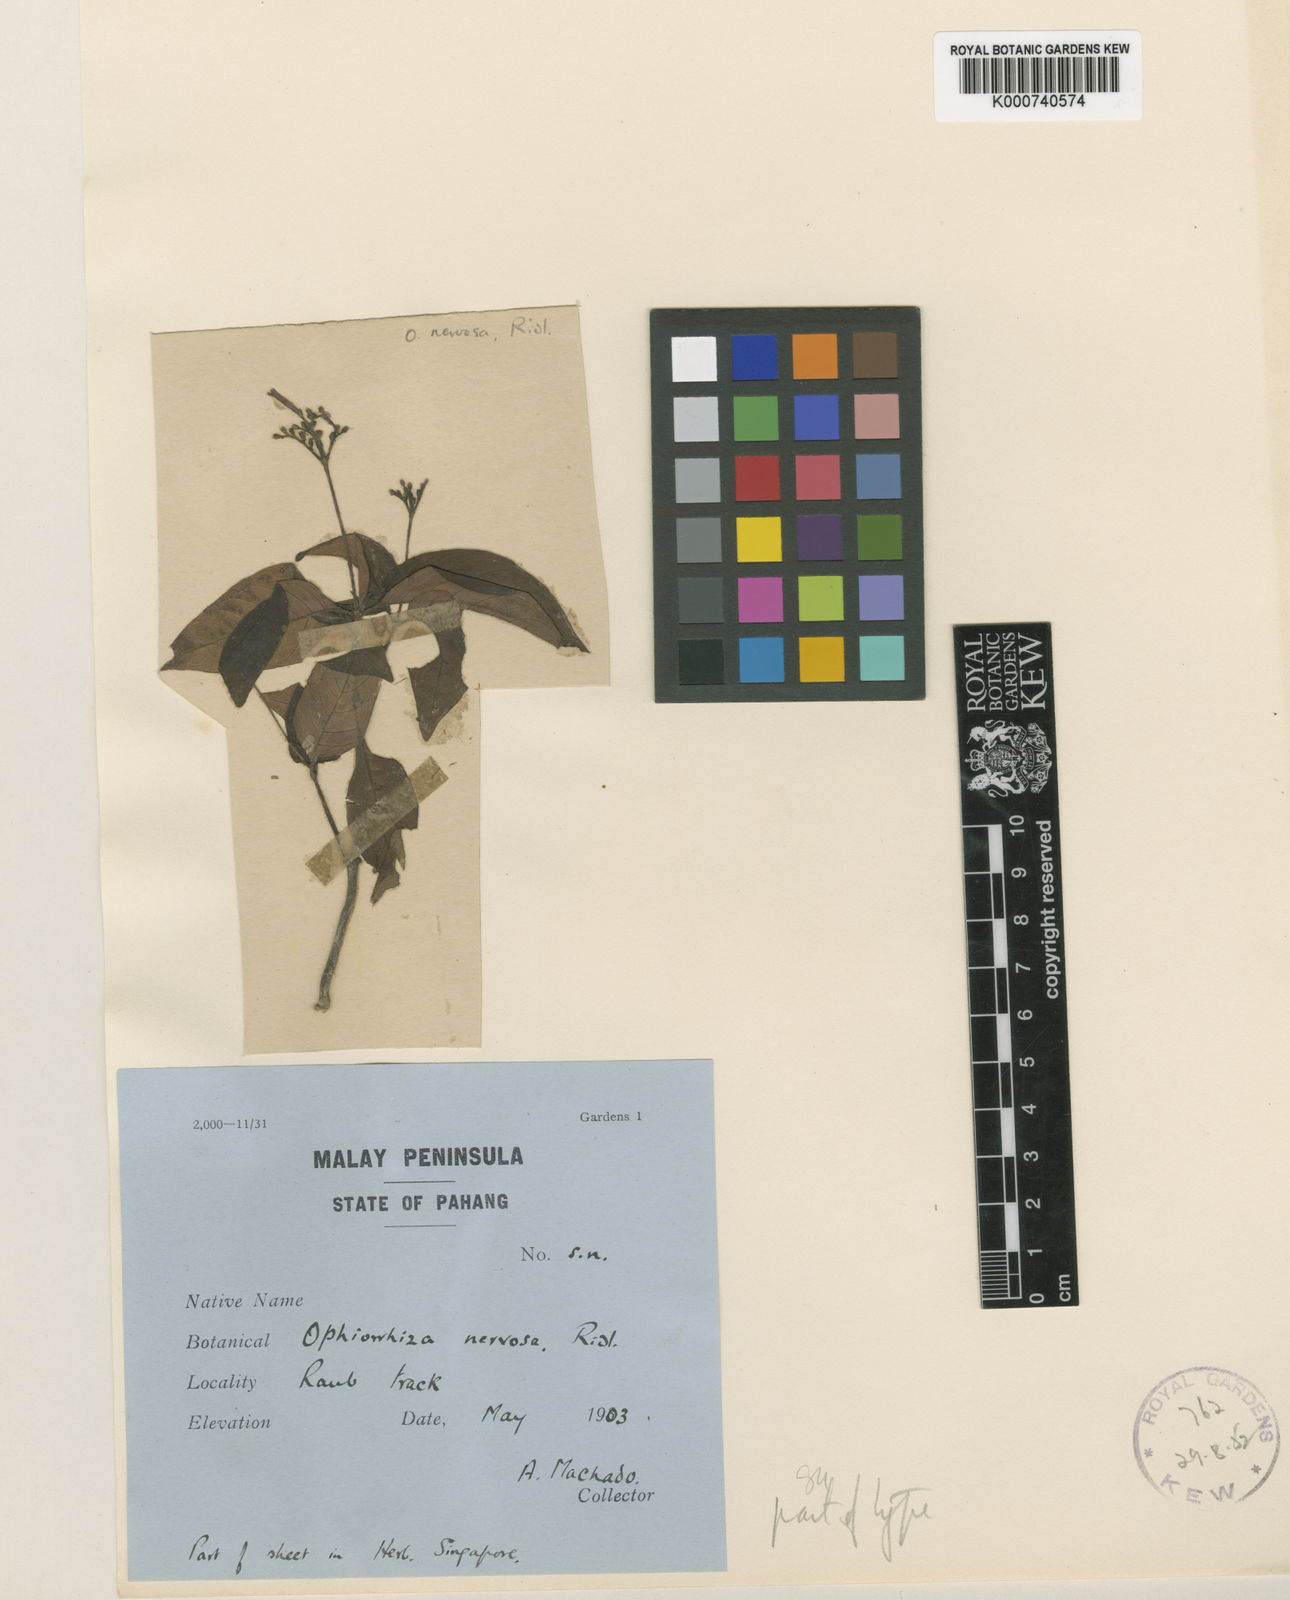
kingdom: Plantae
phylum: Tracheophyta
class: Magnoliopsida
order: Gentianales
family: Rubiaceae
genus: Ophiorrhiza
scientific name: Ophiorrhiza nervosa
